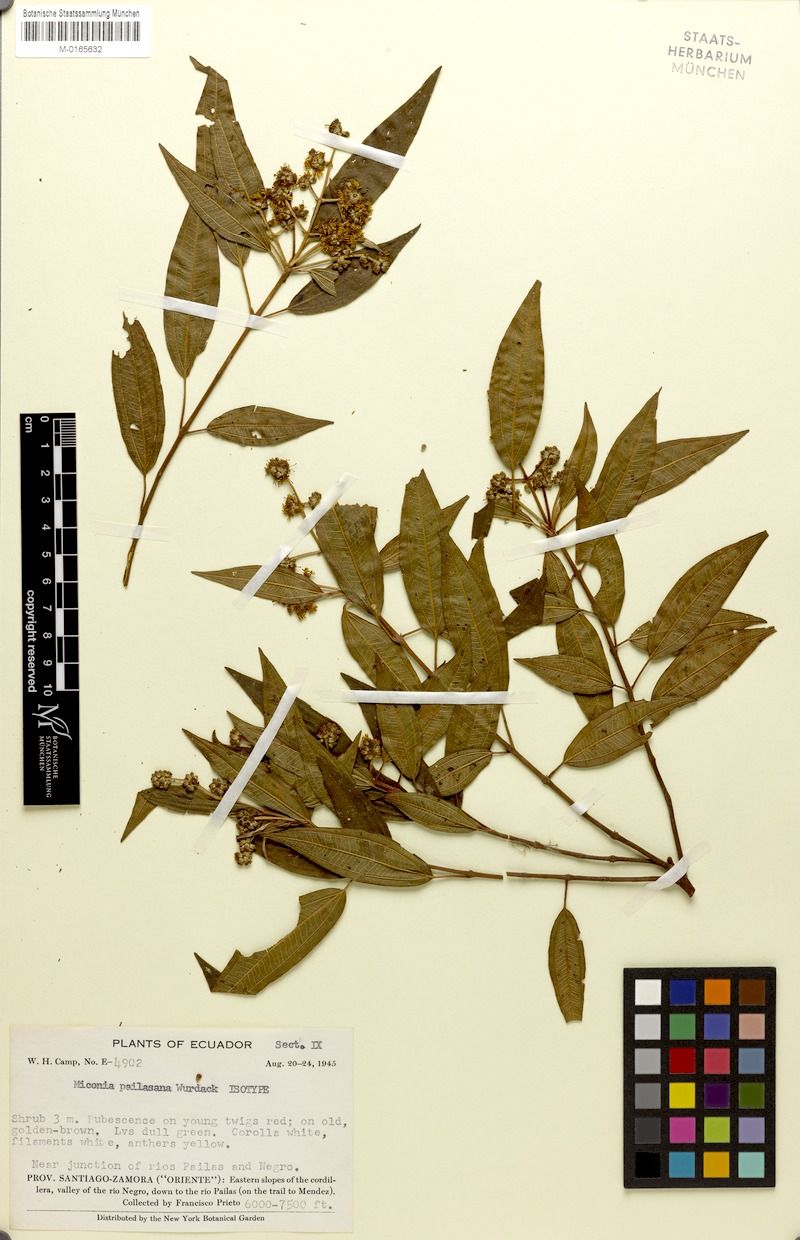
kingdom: Plantae
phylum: Tracheophyta
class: Magnoliopsida
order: Myrtales
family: Melastomataceae
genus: Miconia
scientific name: Miconia pailasana
